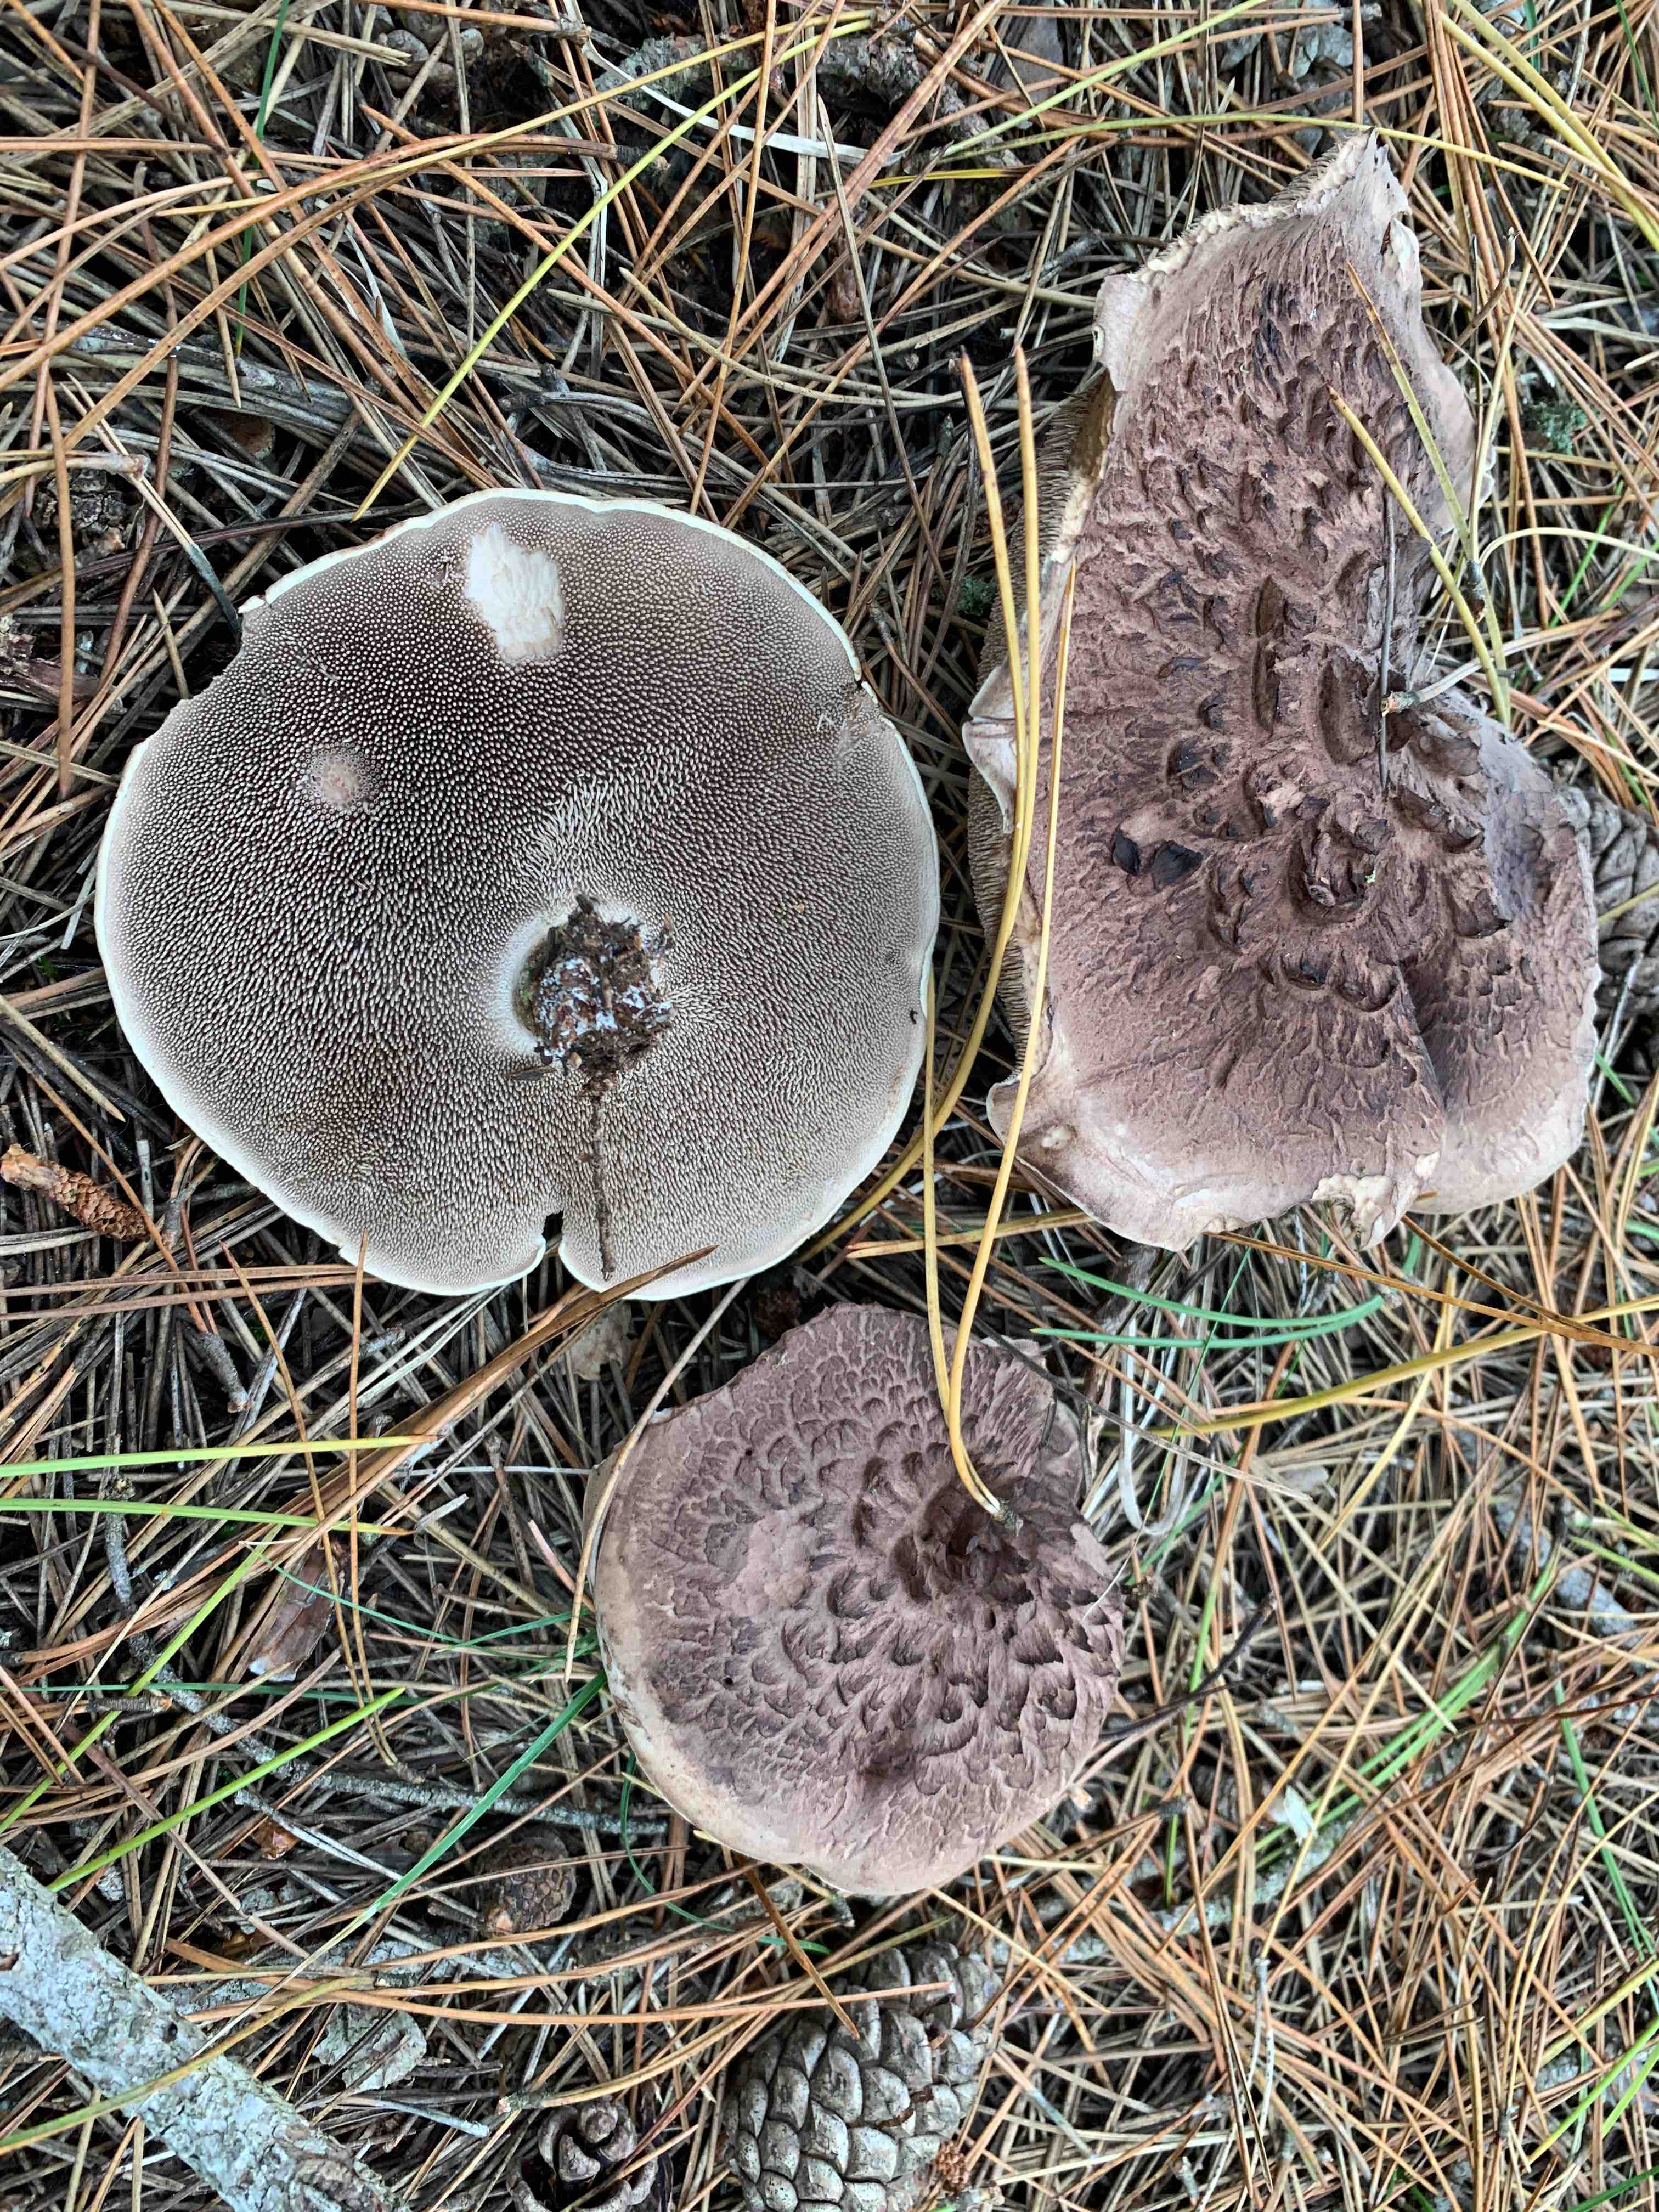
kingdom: Fungi
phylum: Basidiomycota
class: Agaricomycetes
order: Thelephorales
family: Bankeraceae
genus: Sarcodon
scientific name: Sarcodon squamosus
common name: småskællet kødpigsvamp
